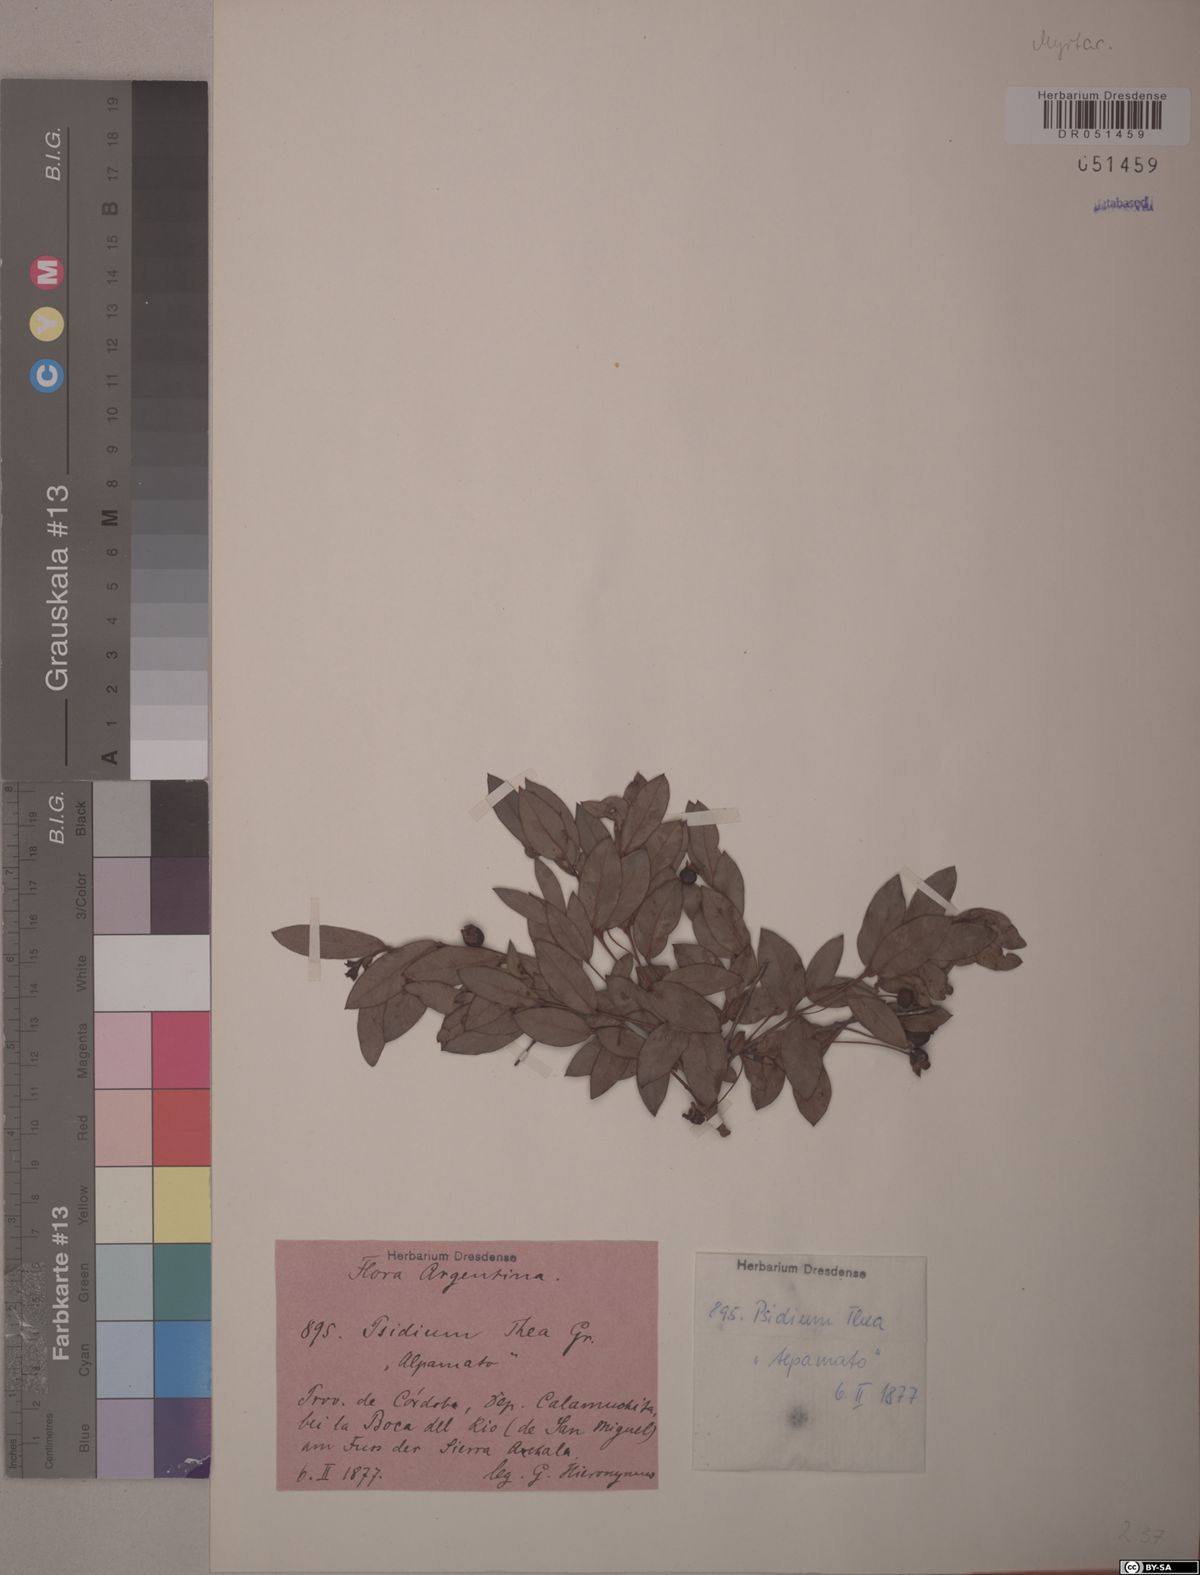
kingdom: Plantae
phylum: Tracheophyta
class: Magnoliopsida
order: Myrtales
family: Myrtaceae
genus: Psidium
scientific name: Psidium salutare
